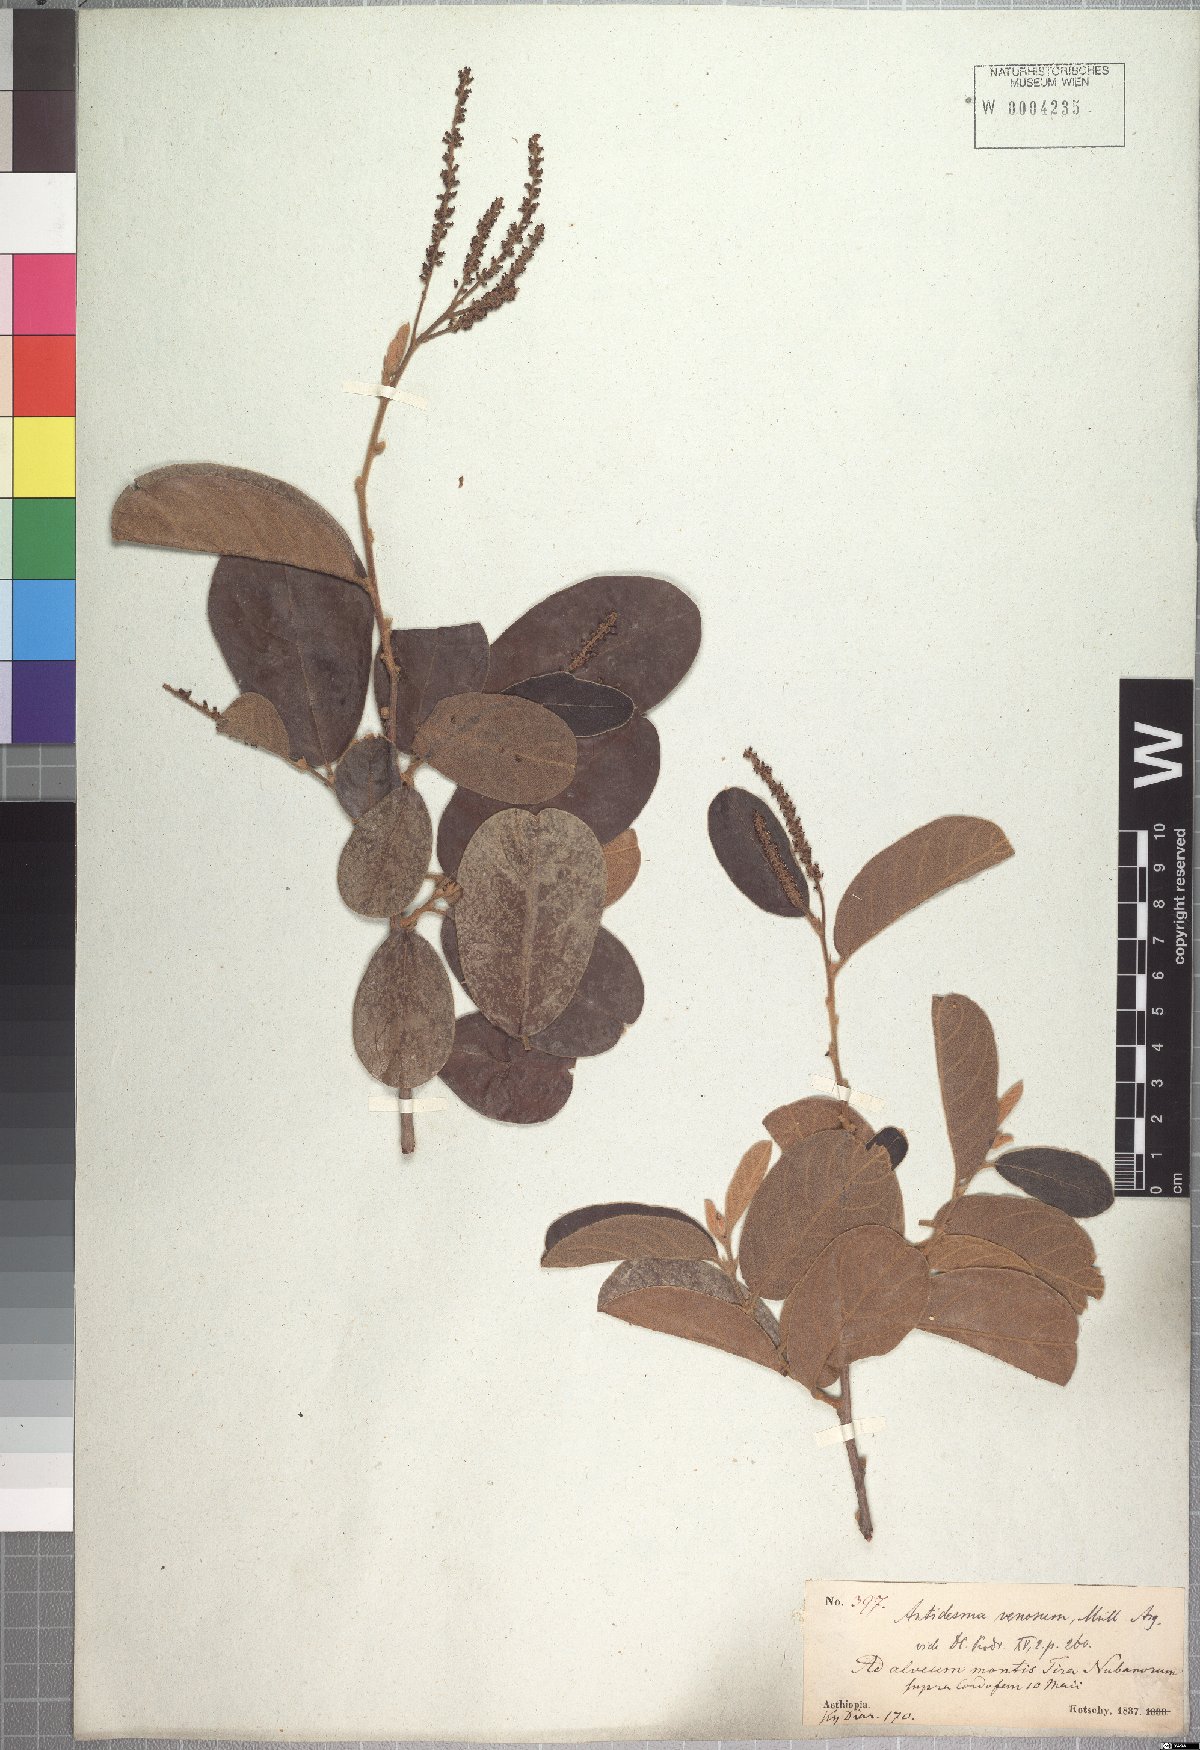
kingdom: Plantae
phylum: Tracheophyta
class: Magnoliopsida
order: Malpighiales
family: Phyllanthaceae
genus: Antidesma
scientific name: Antidesma venosum
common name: Tassel-berry
